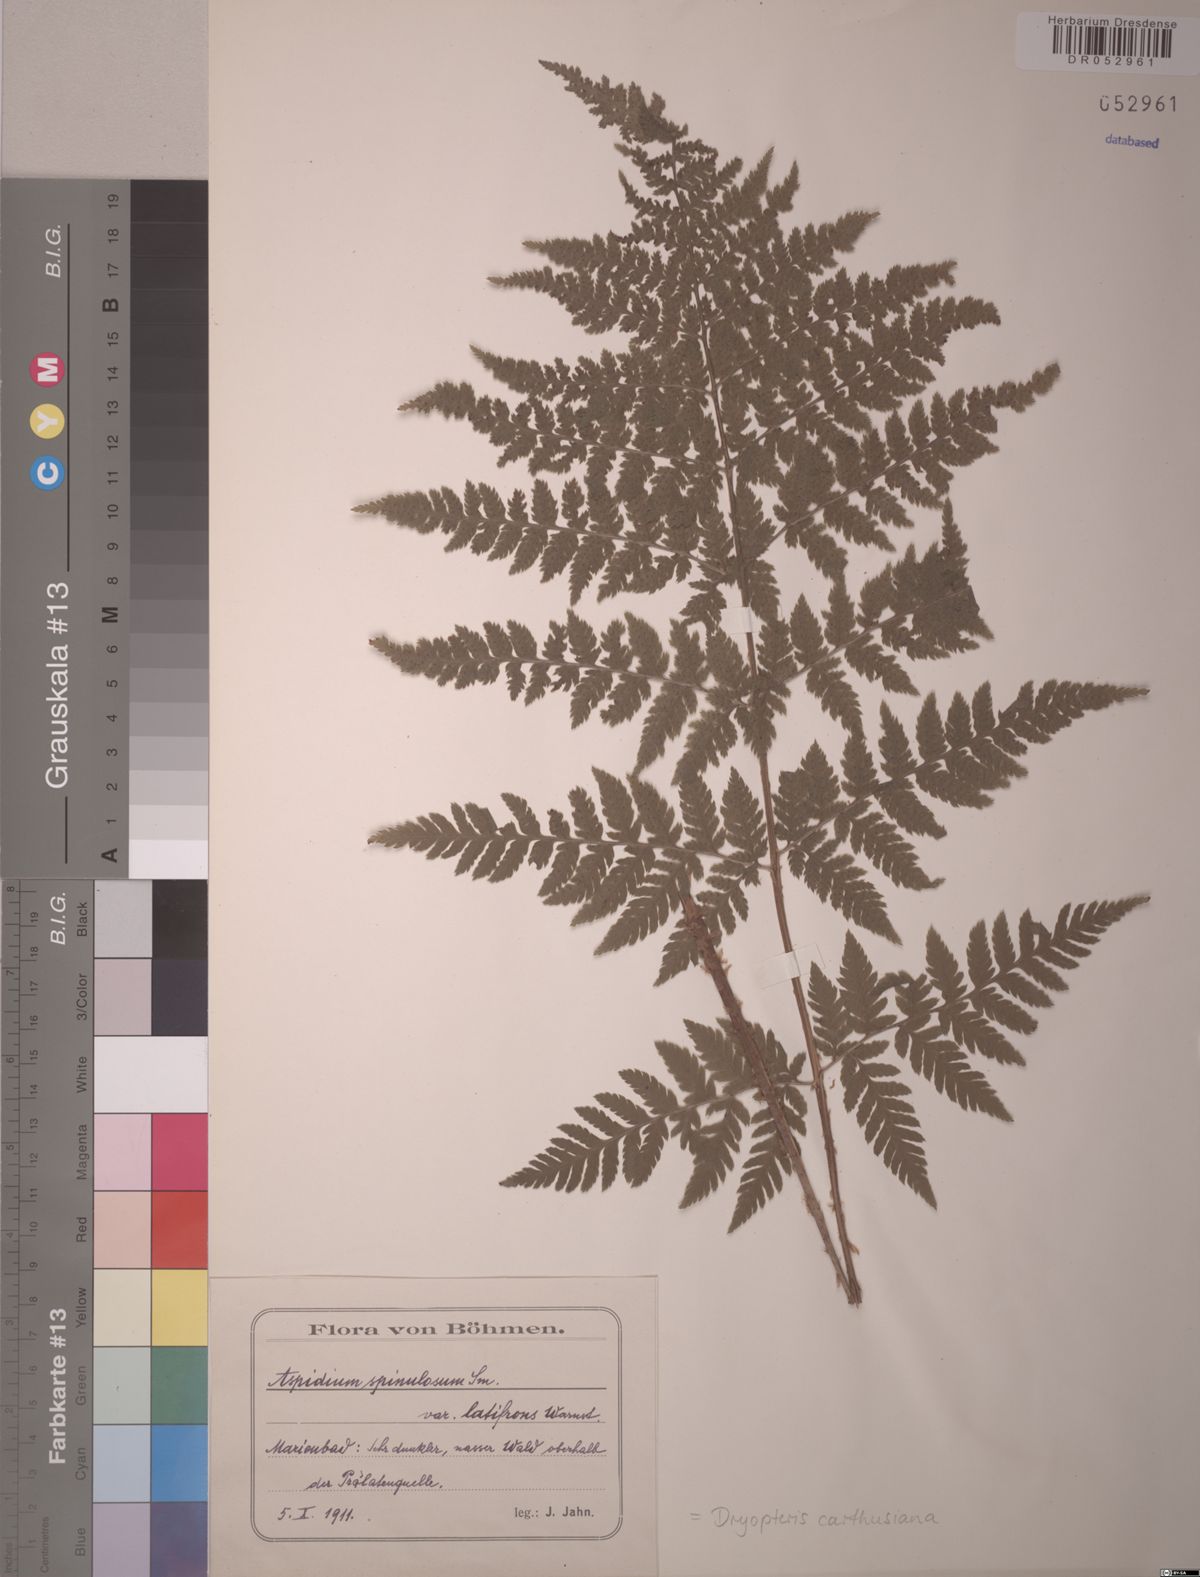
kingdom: Plantae
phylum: Tracheophyta
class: Polypodiopsida
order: Polypodiales
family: Dryopteridaceae
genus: Dryopteris
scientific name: Dryopteris carthusiana
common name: Narrow buckler-fern
